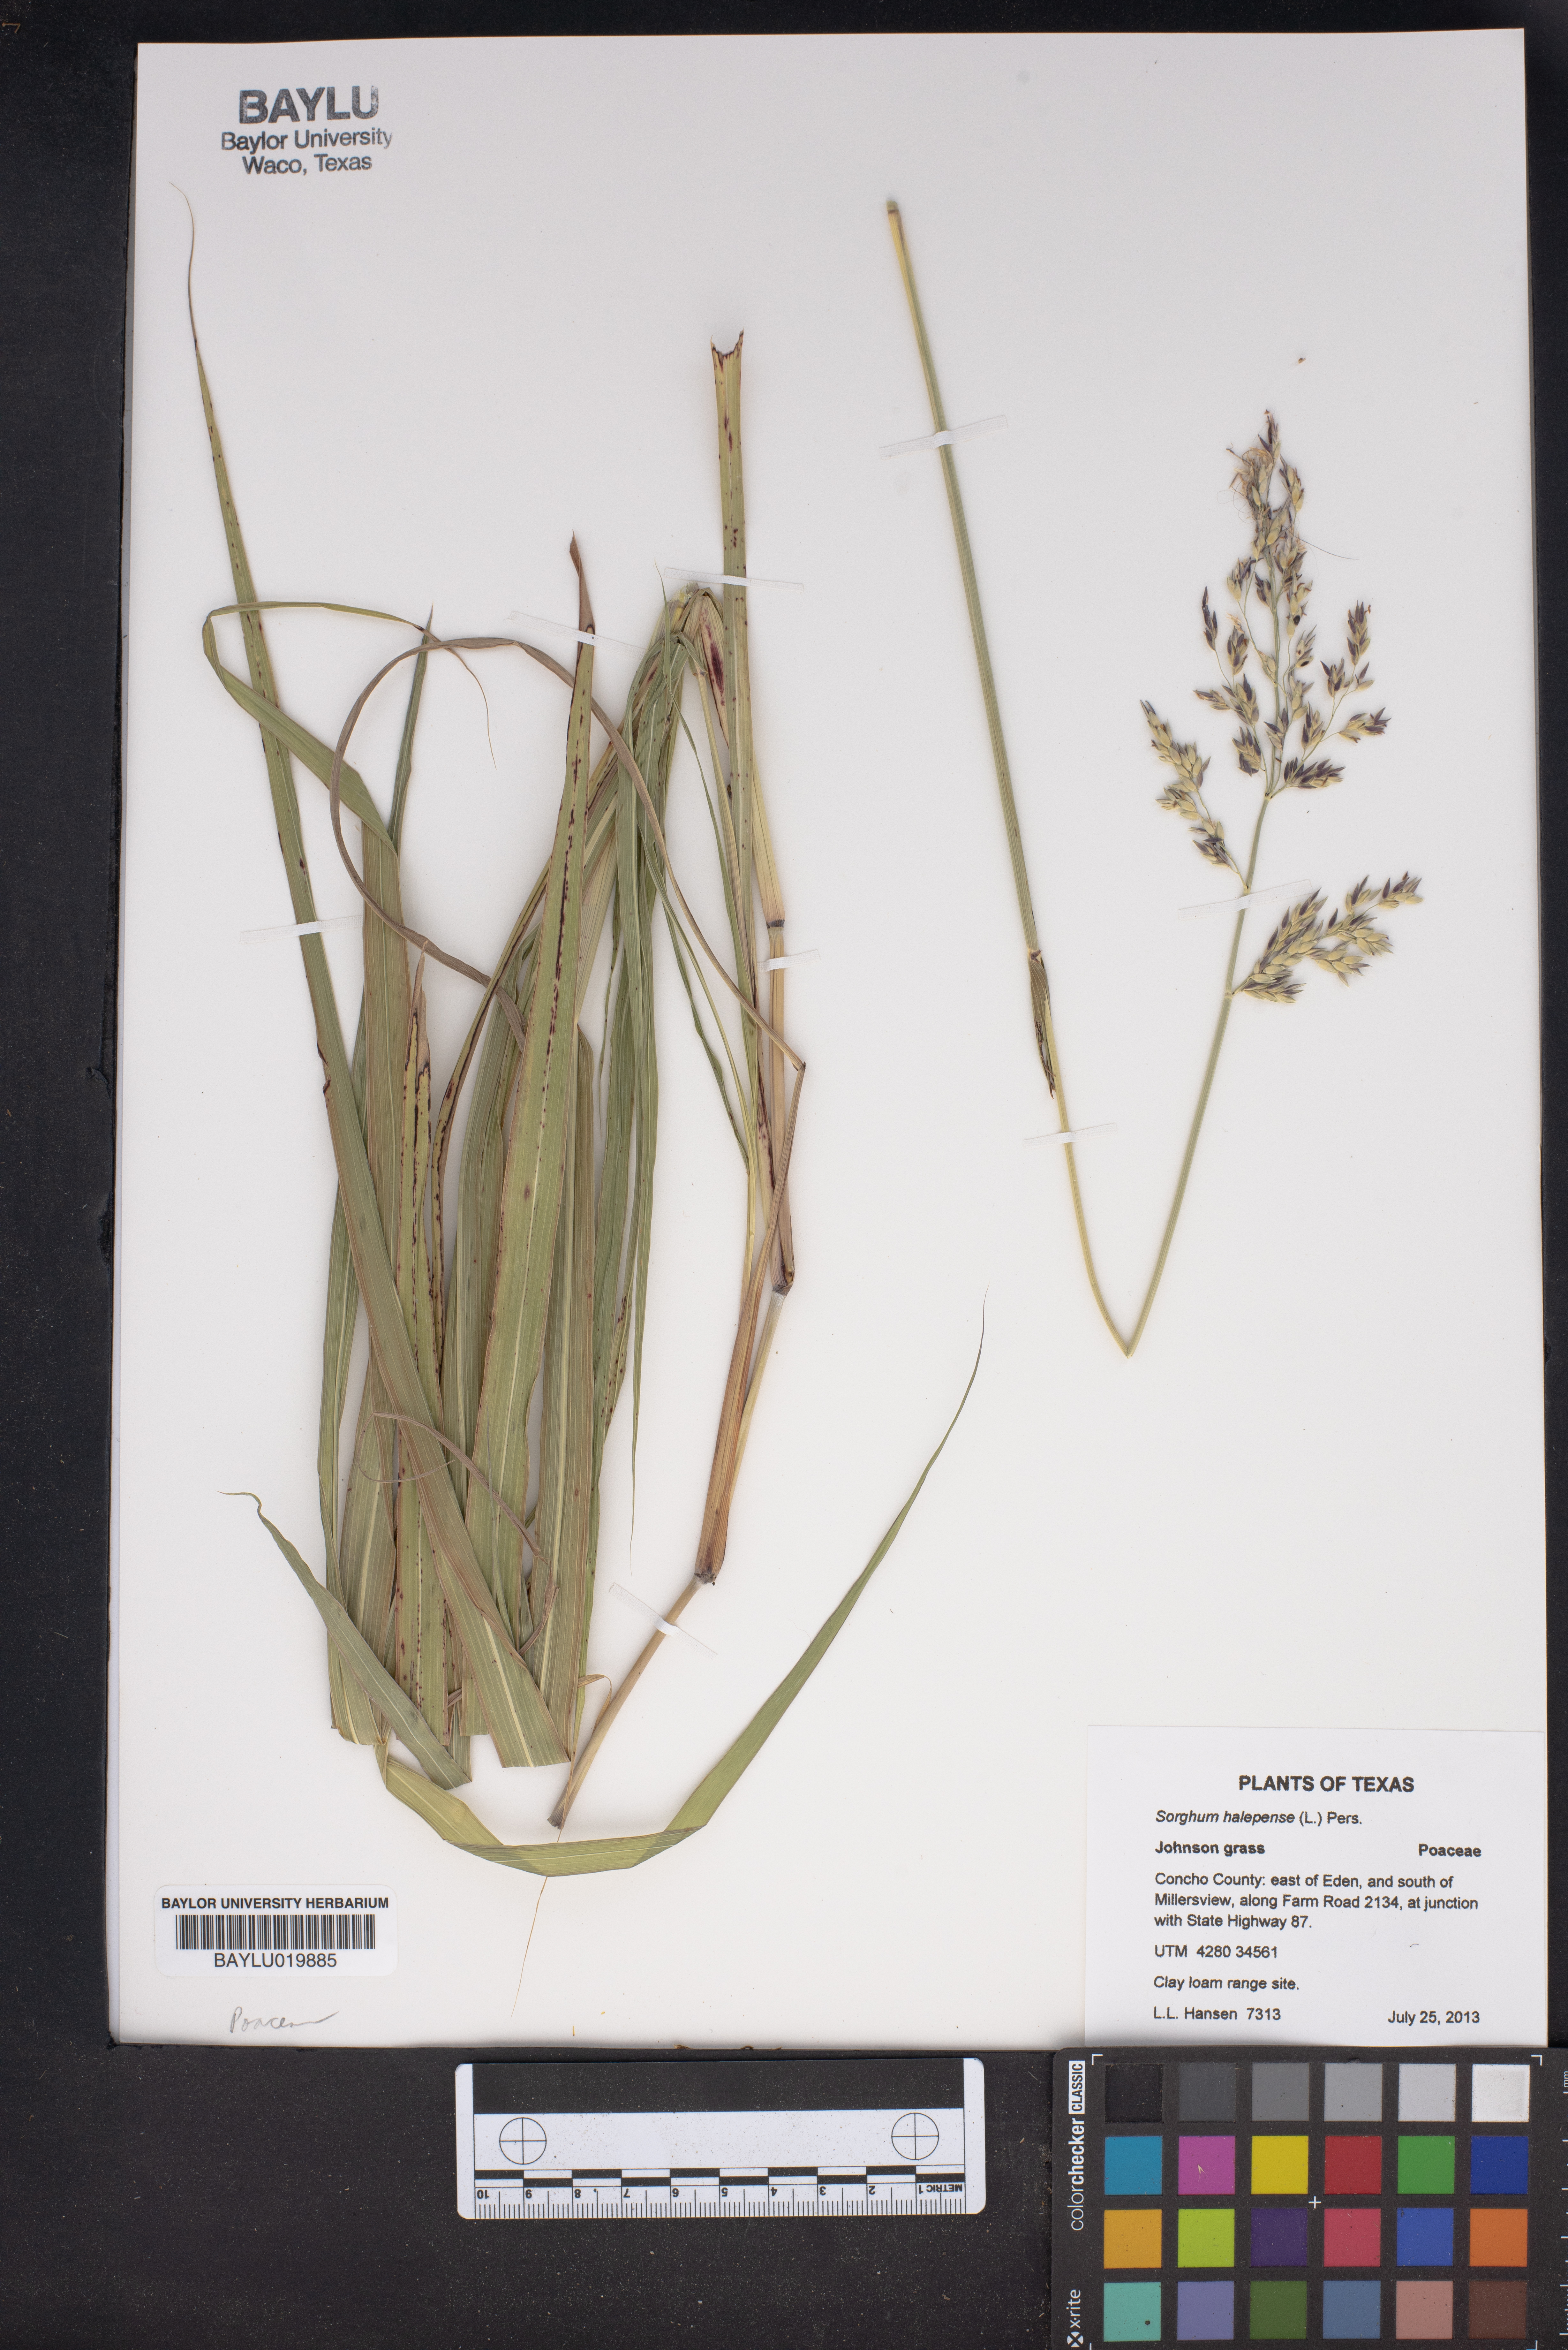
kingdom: Plantae
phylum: Tracheophyta
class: Liliopsida
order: Poales
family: Poaceae
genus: Sorghum
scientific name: Sorghum halepense
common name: Johnson-grass
